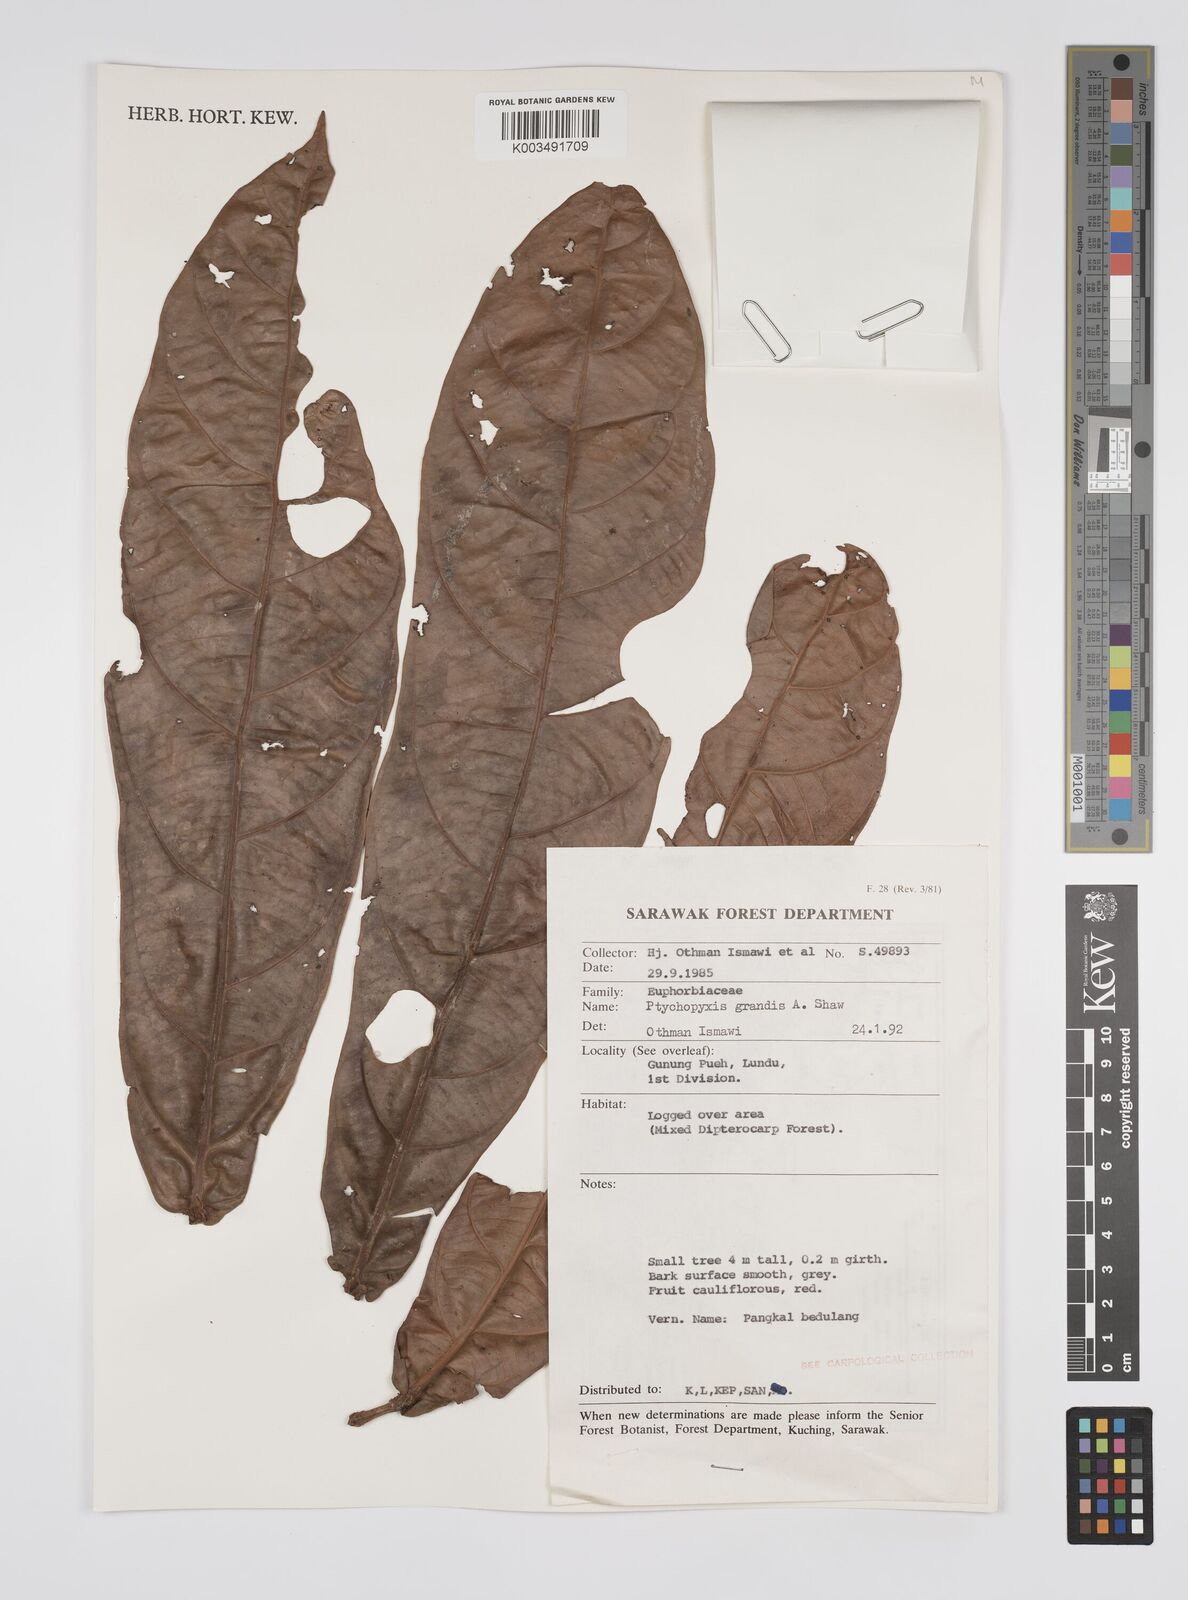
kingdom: Plantae
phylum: Tracheophyta
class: Magnoliopsida
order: Malpighiales
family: Euphorbiaceae
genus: Ptychopyxis
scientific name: Ptychopyxis grandis
